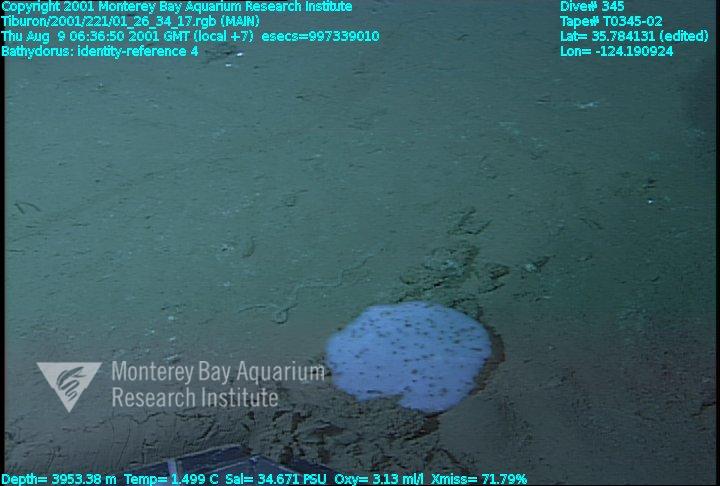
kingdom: Animalia
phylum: Porifera
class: Hexactinellida
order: Lyssacinosida
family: Rossellidae
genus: Bathydorus
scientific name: Bathydorus
